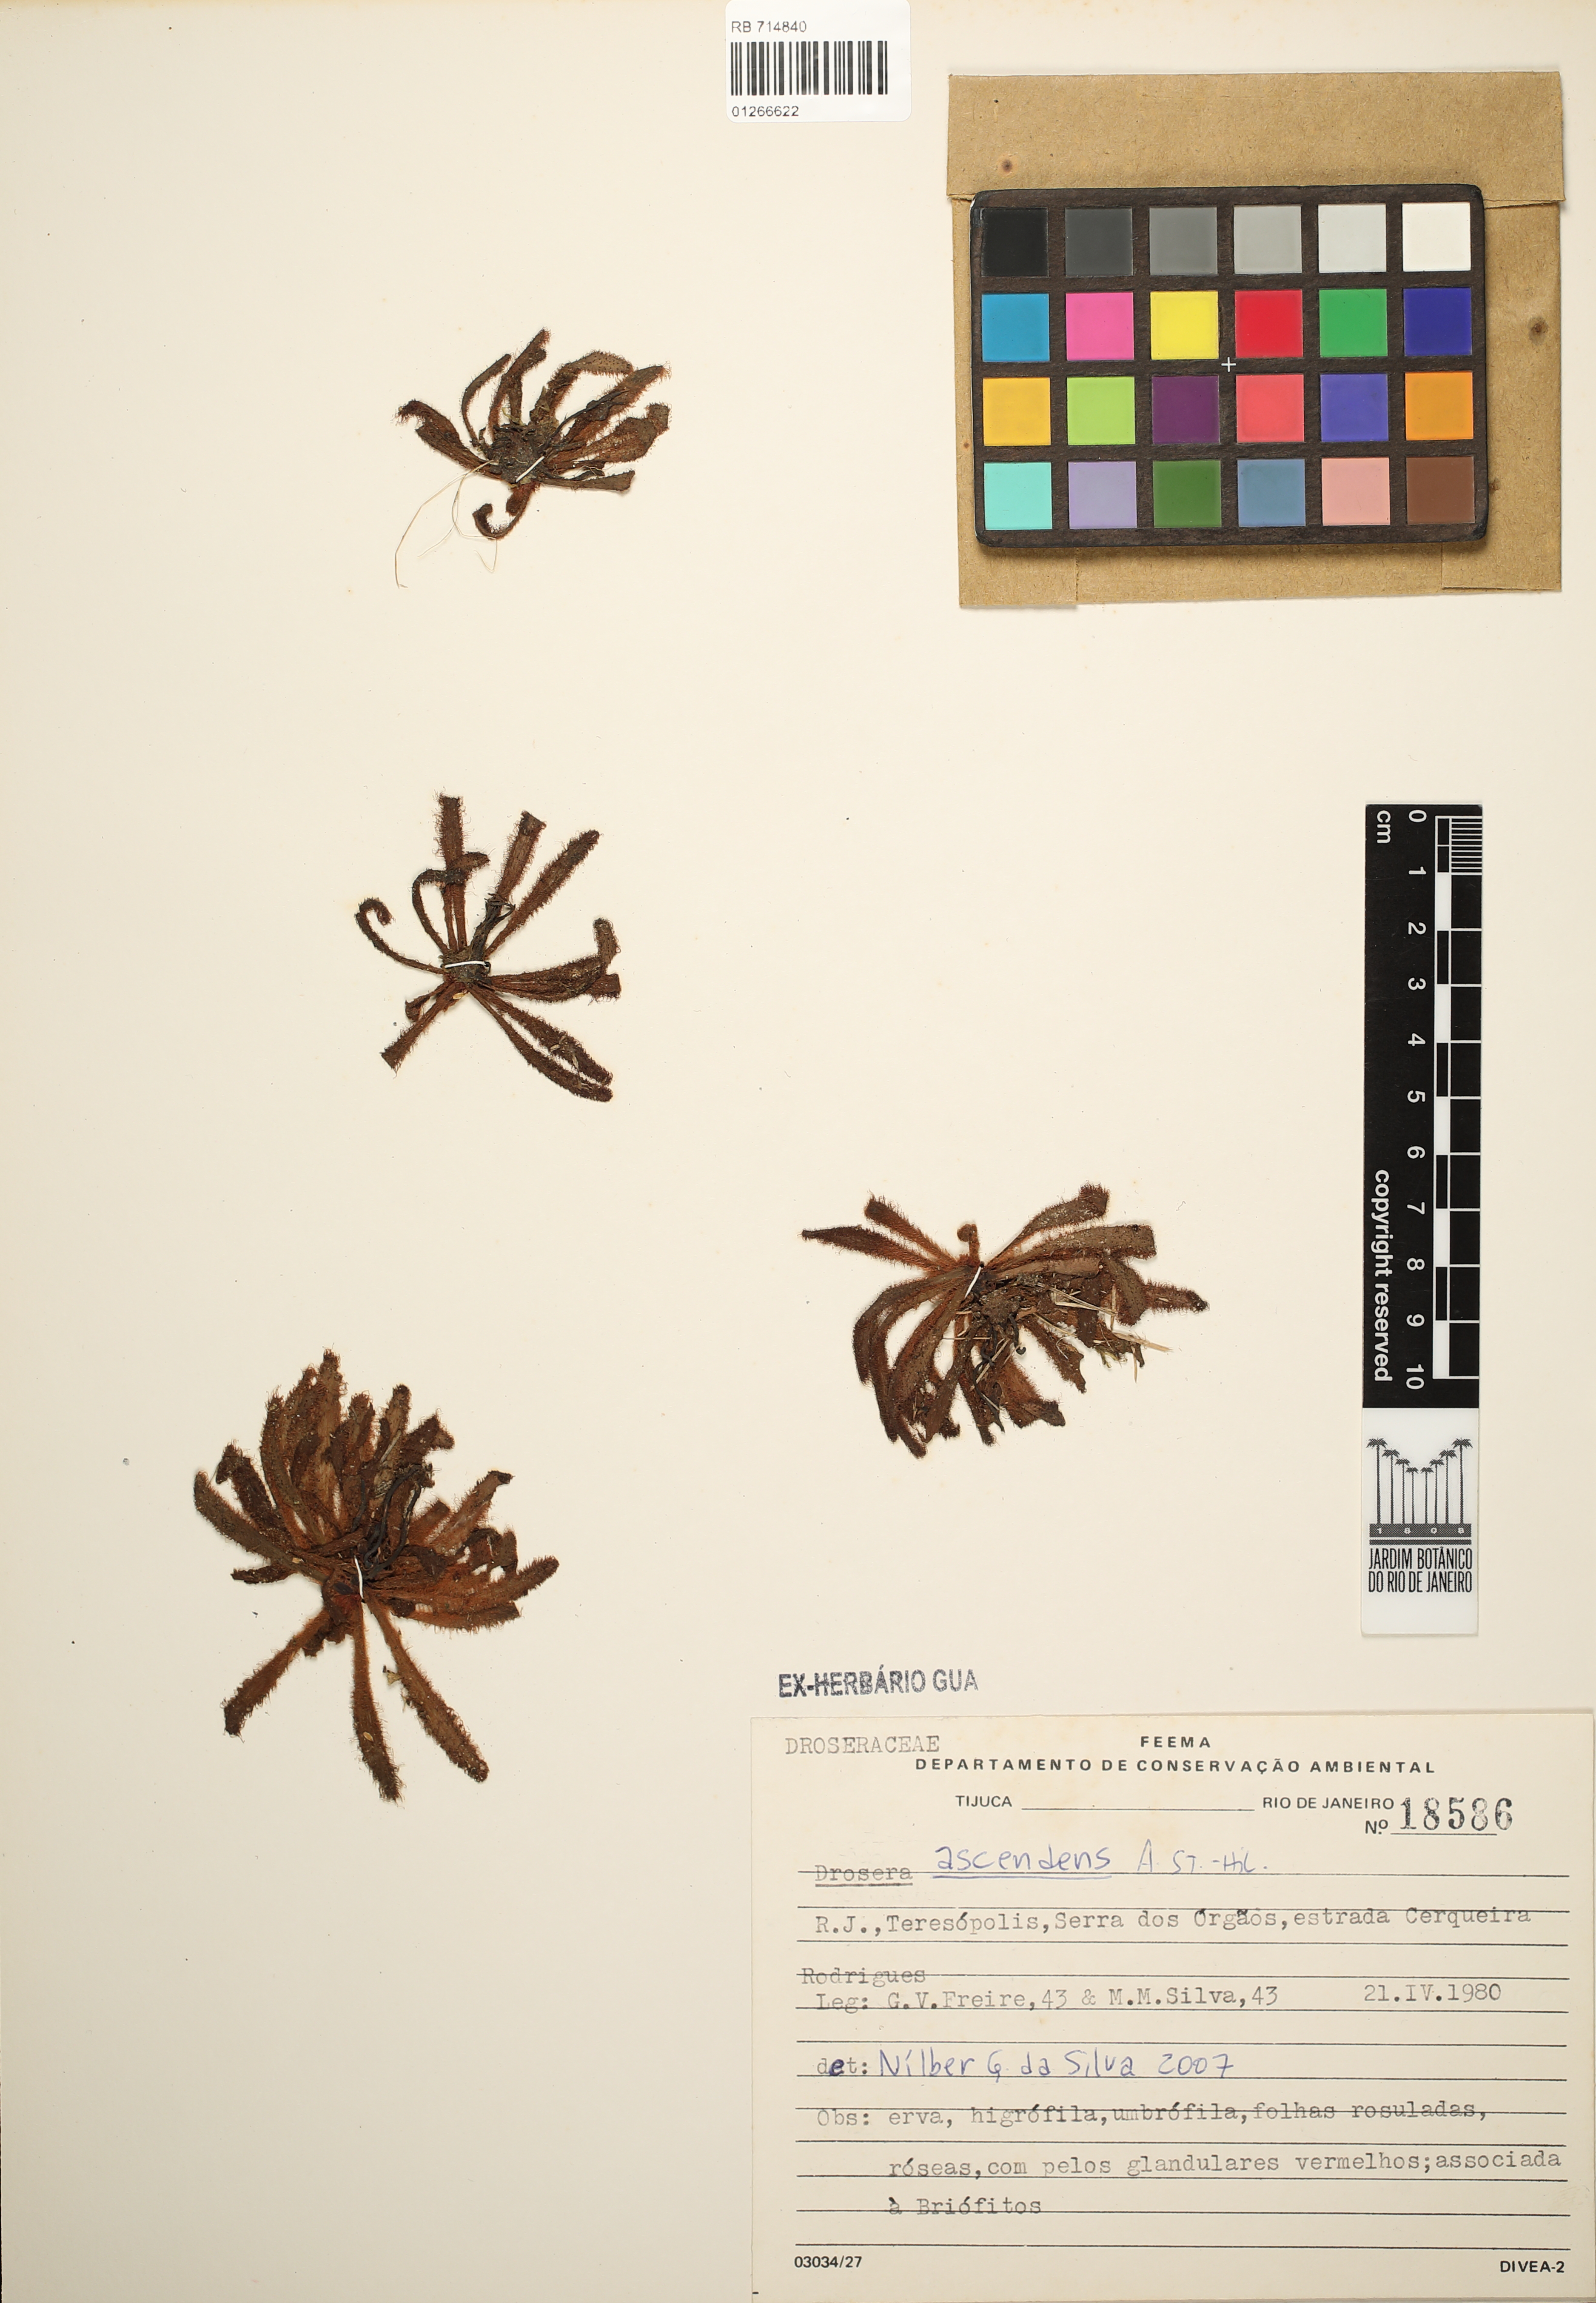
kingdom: Plantae
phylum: Tracheophyta
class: Magnoliopsida
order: Caryophyllales
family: Droseraceae
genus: Drosera
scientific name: Drosera villosa
